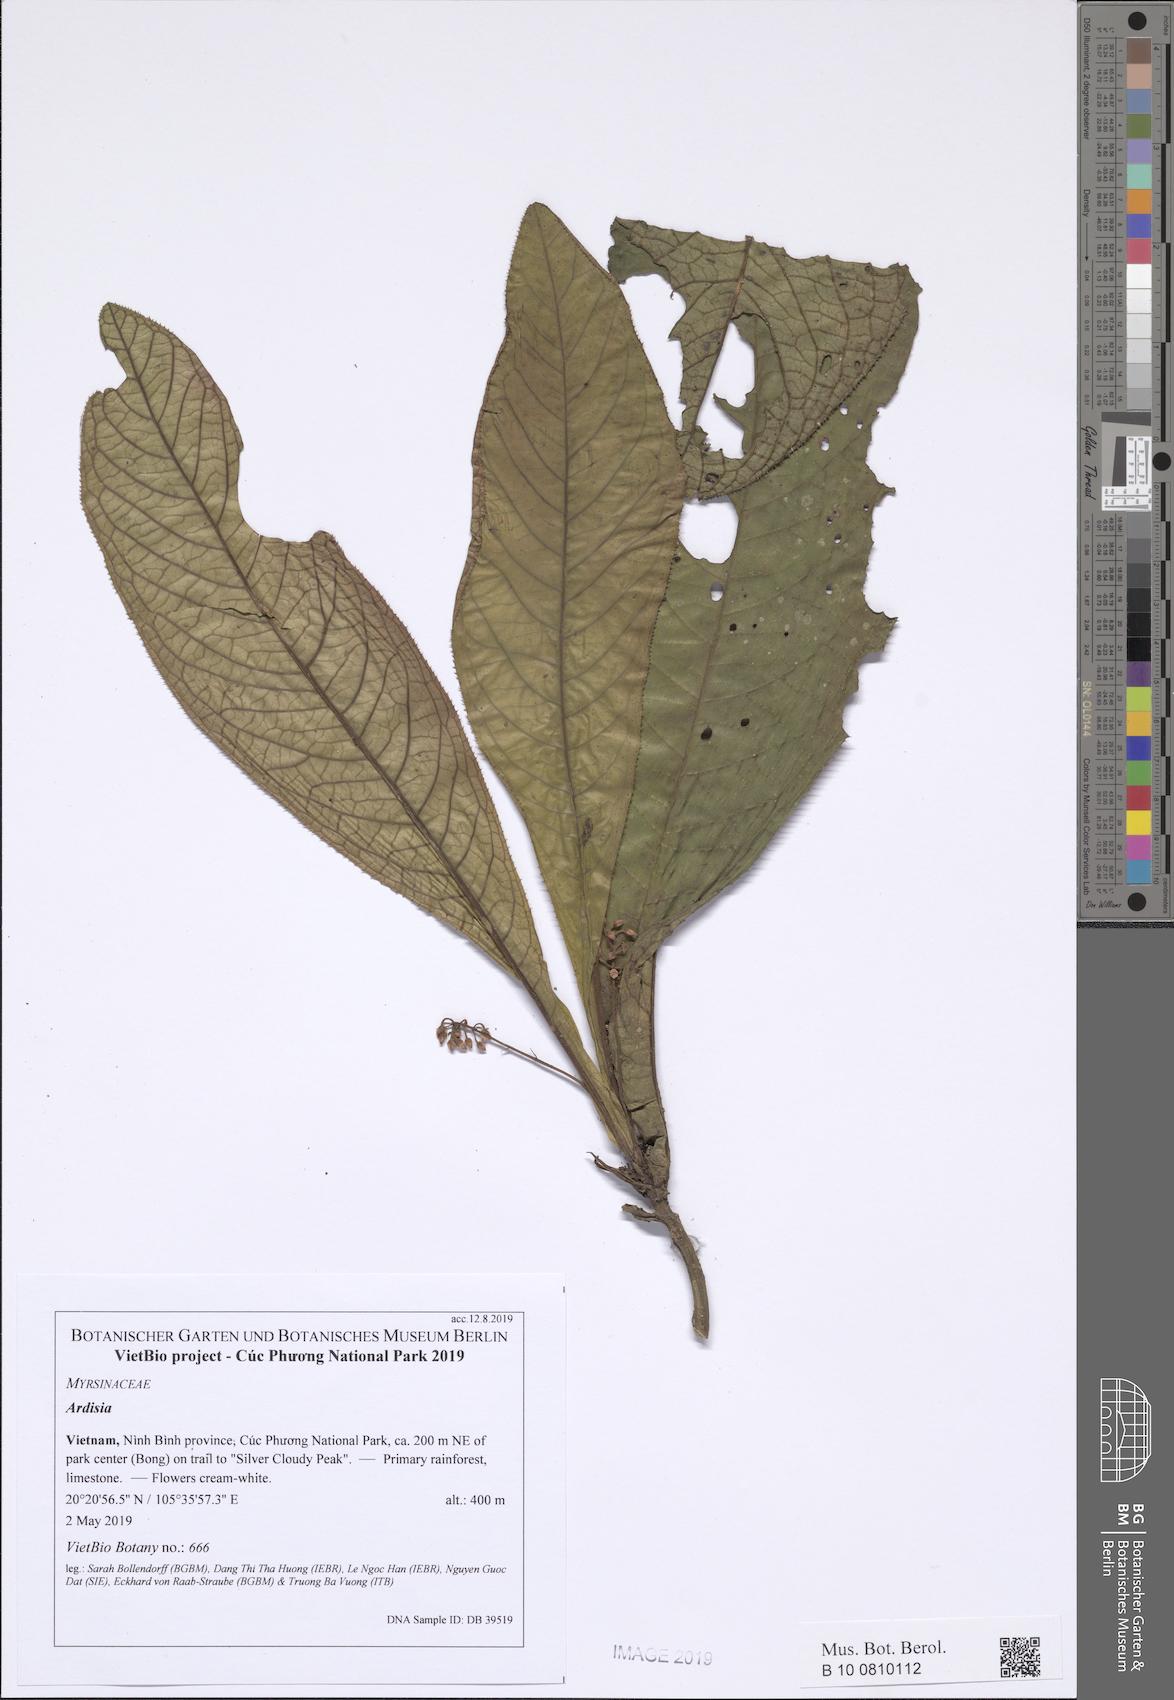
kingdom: Plantae
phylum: Tracheophyta
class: Magnoliopsida
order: Ericales
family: Primulaceae
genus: Ardisia
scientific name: Ardisia silvestris
